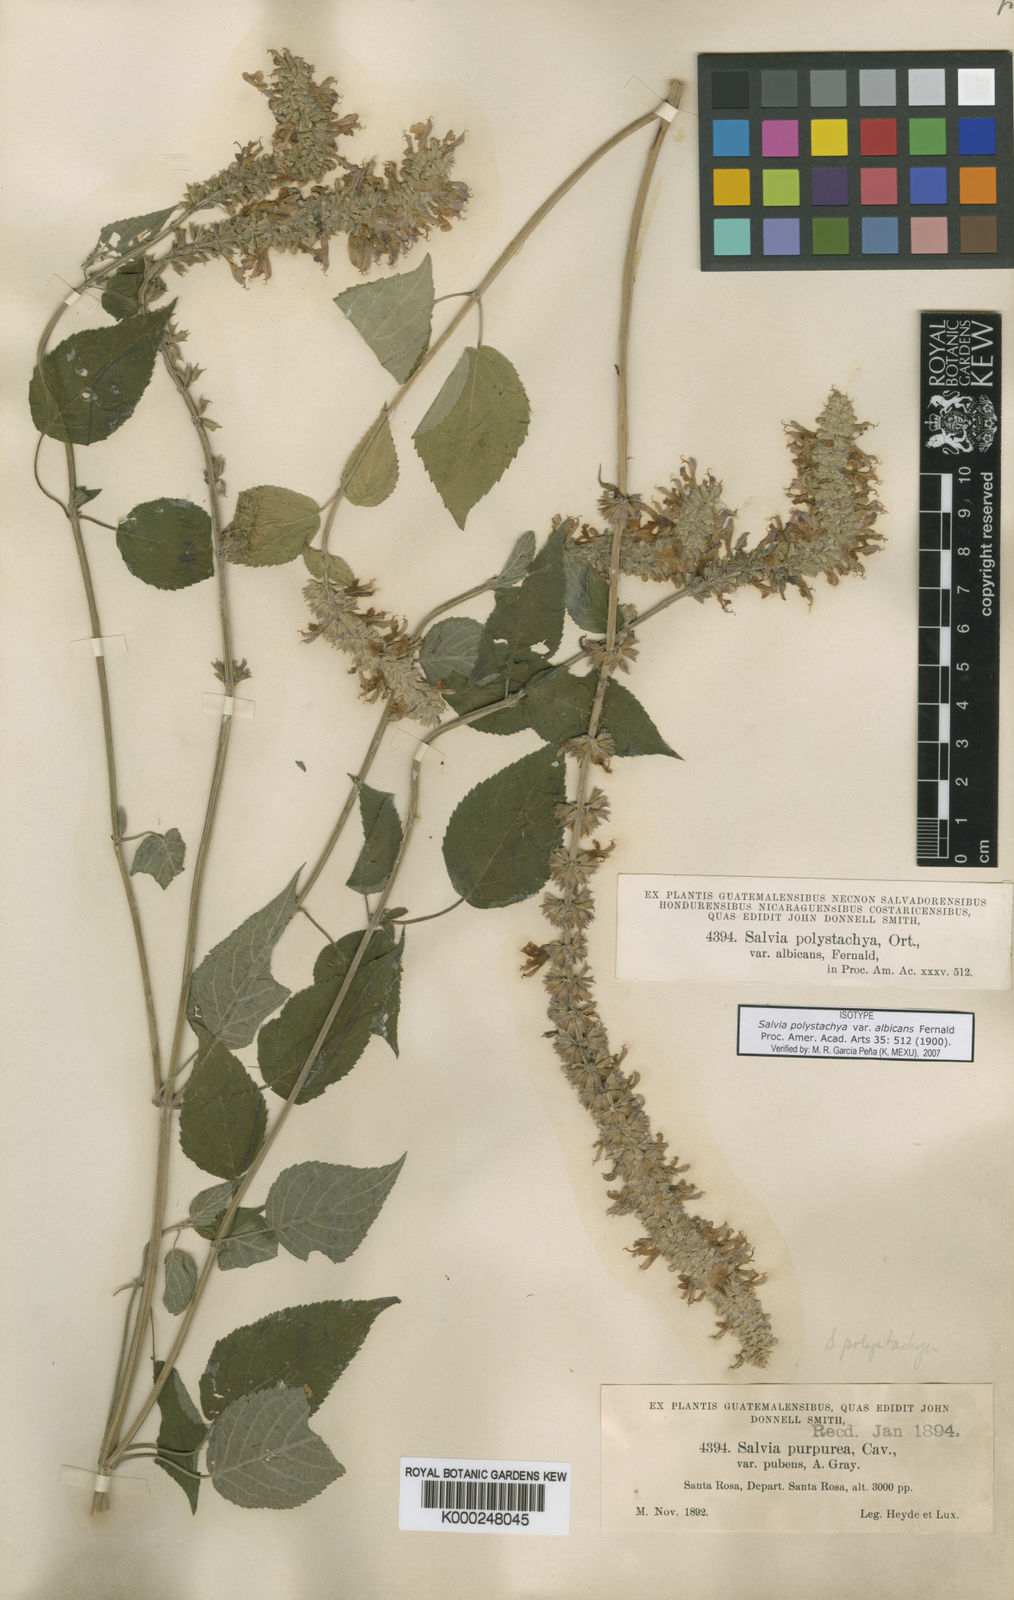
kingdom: Plantae
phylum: Tracheophyta
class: Magnoliopsida
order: Lamiales
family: Lamiaceae
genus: Salvia
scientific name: Salvia
